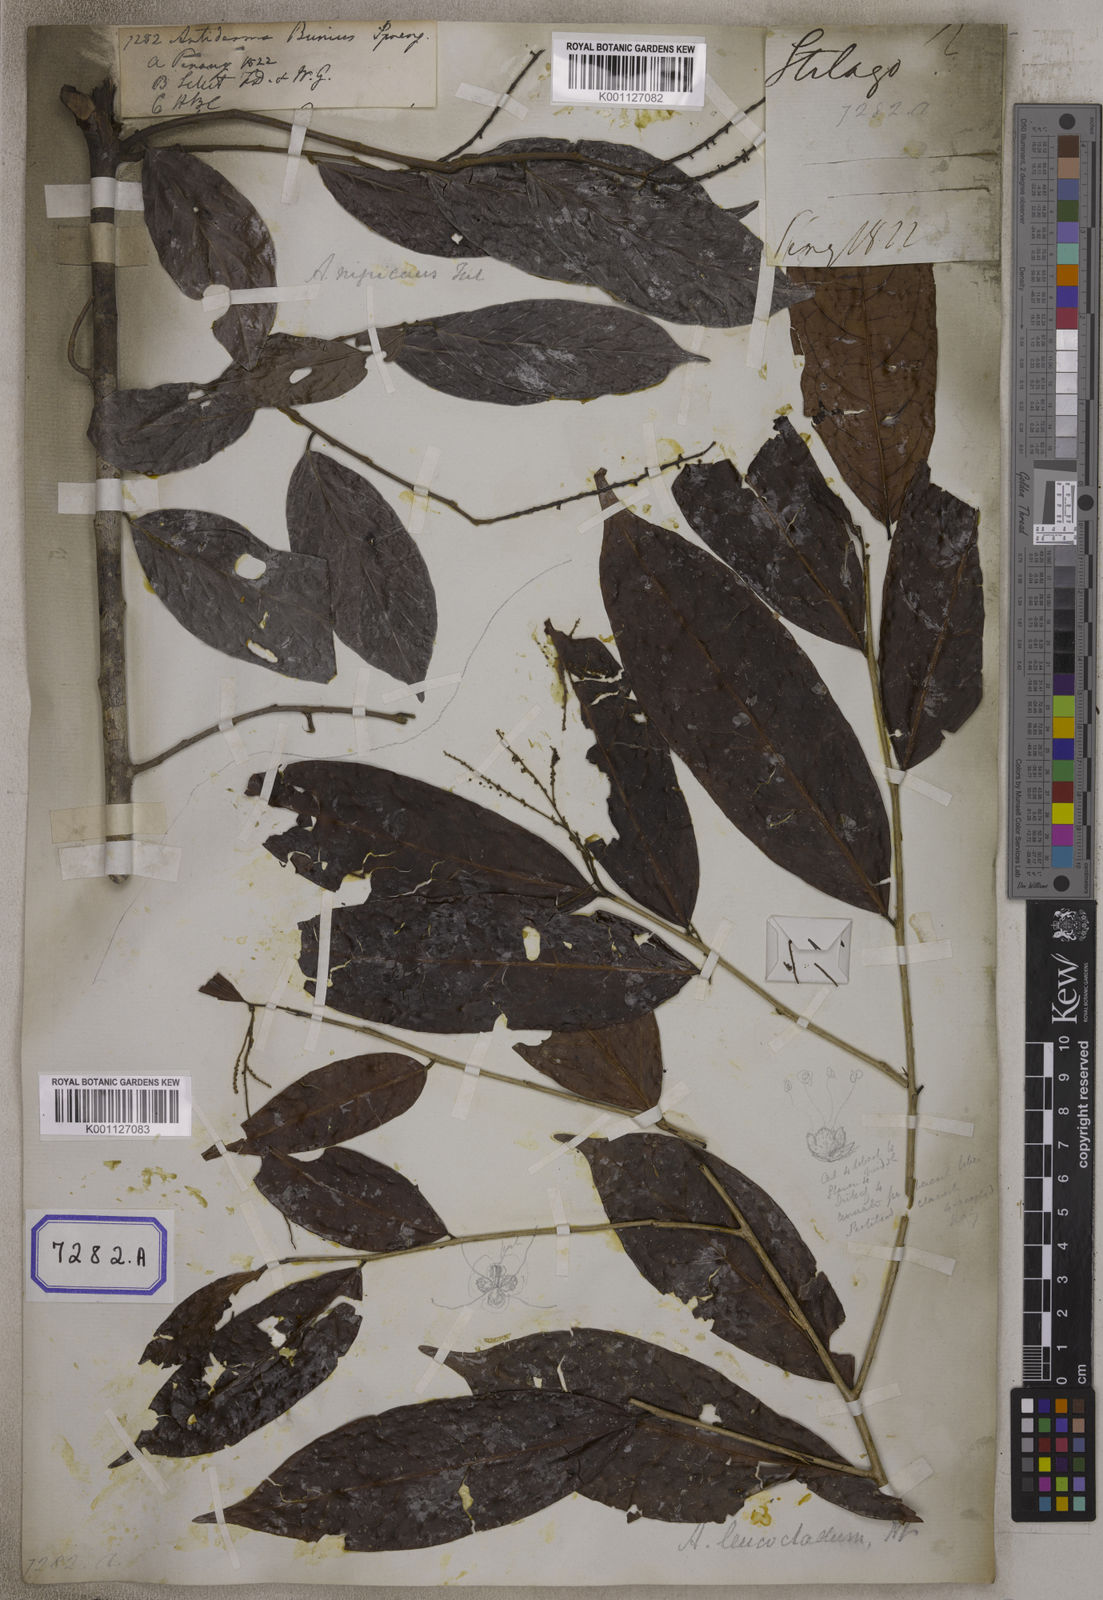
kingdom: Plantae
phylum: Tracheophyta
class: Magnoliopsida
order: Malpighiales
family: Phyllanthaceae
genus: Antidesma
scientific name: Antidesma nigricans
